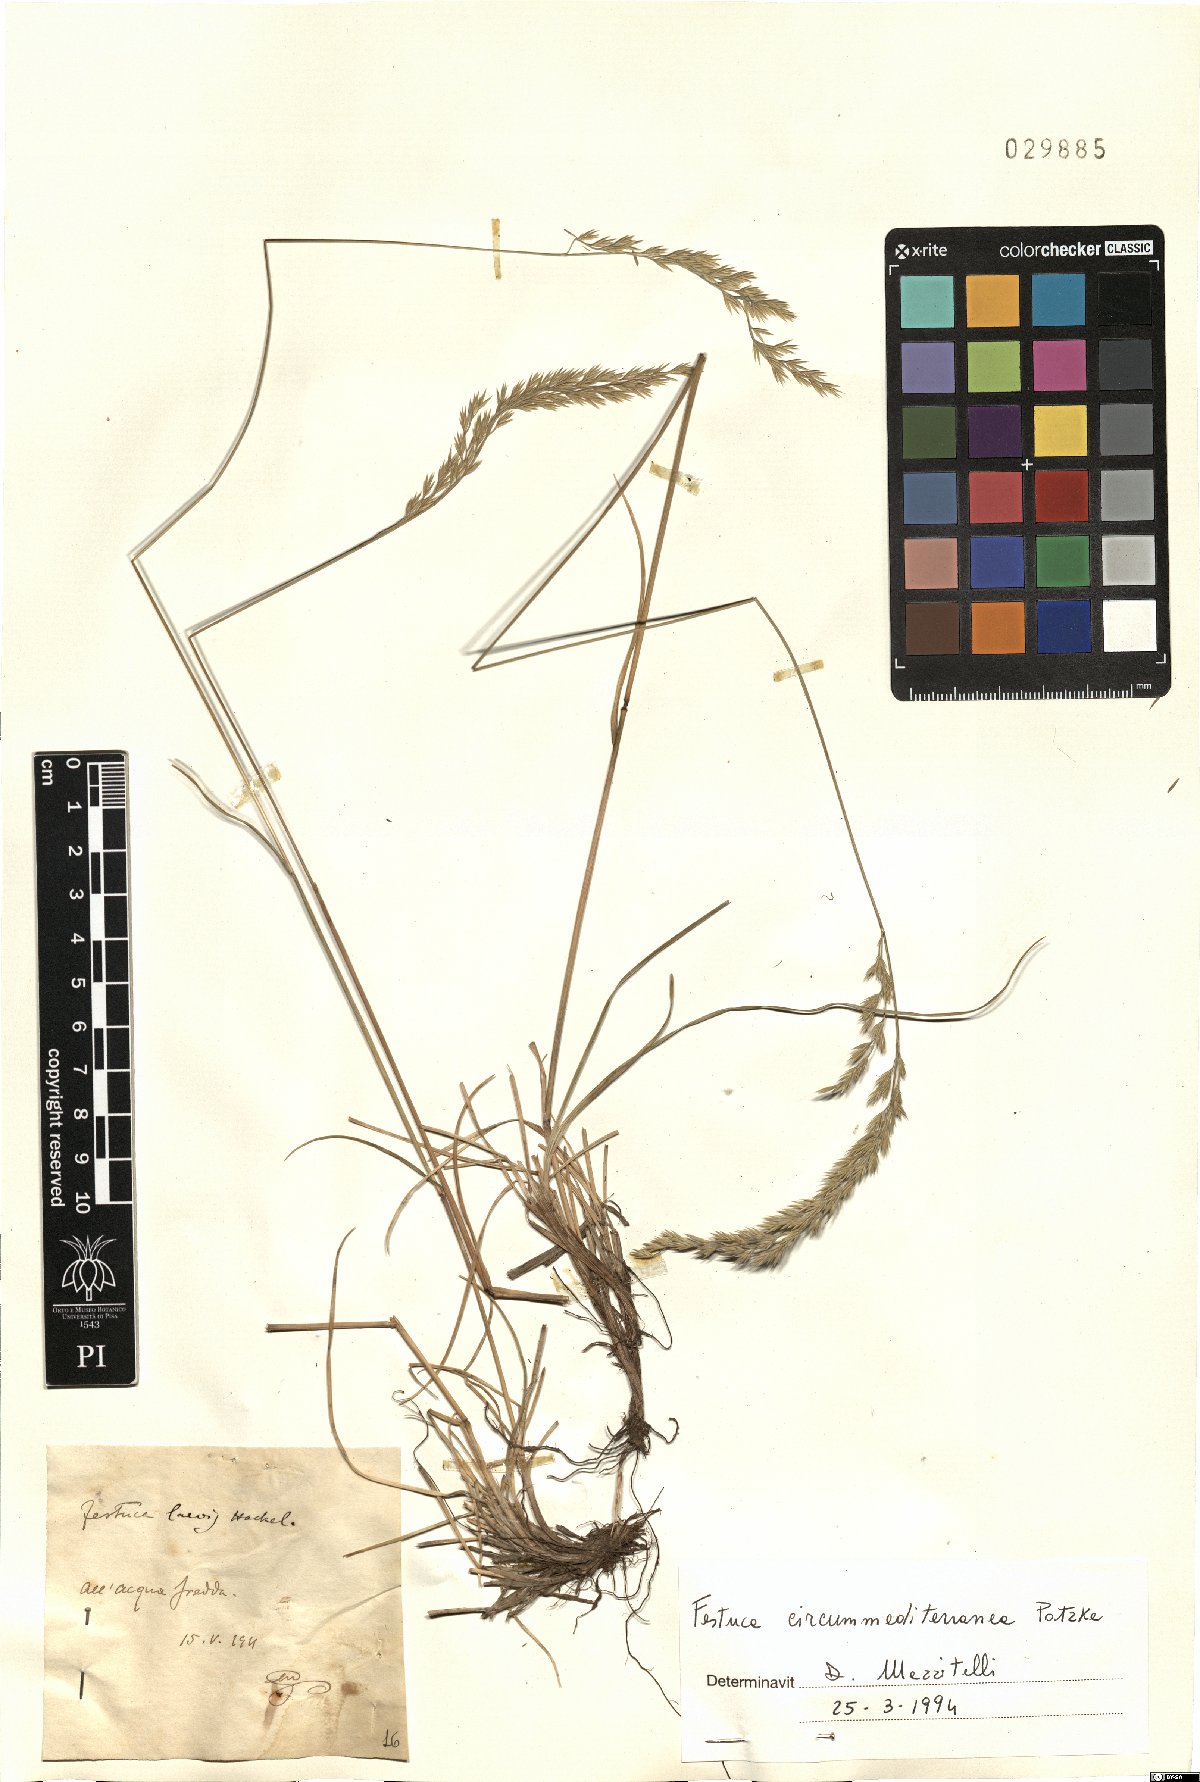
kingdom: Plantae
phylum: Tracheophyta
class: Liliopsida
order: Poales
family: Poaceae
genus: Festuca
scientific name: Festuca circummediterranea
